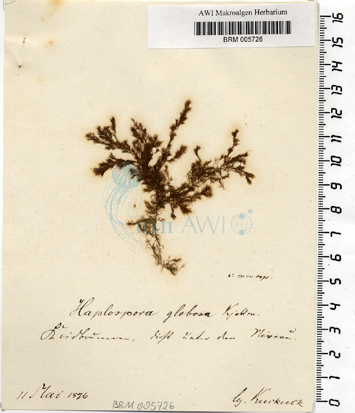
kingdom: Chromista
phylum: Ochrophyta
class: Phaeophyceae
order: Tilopteridales
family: Tilopteridaceae
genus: Haplospora
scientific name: Haplospora globosa
